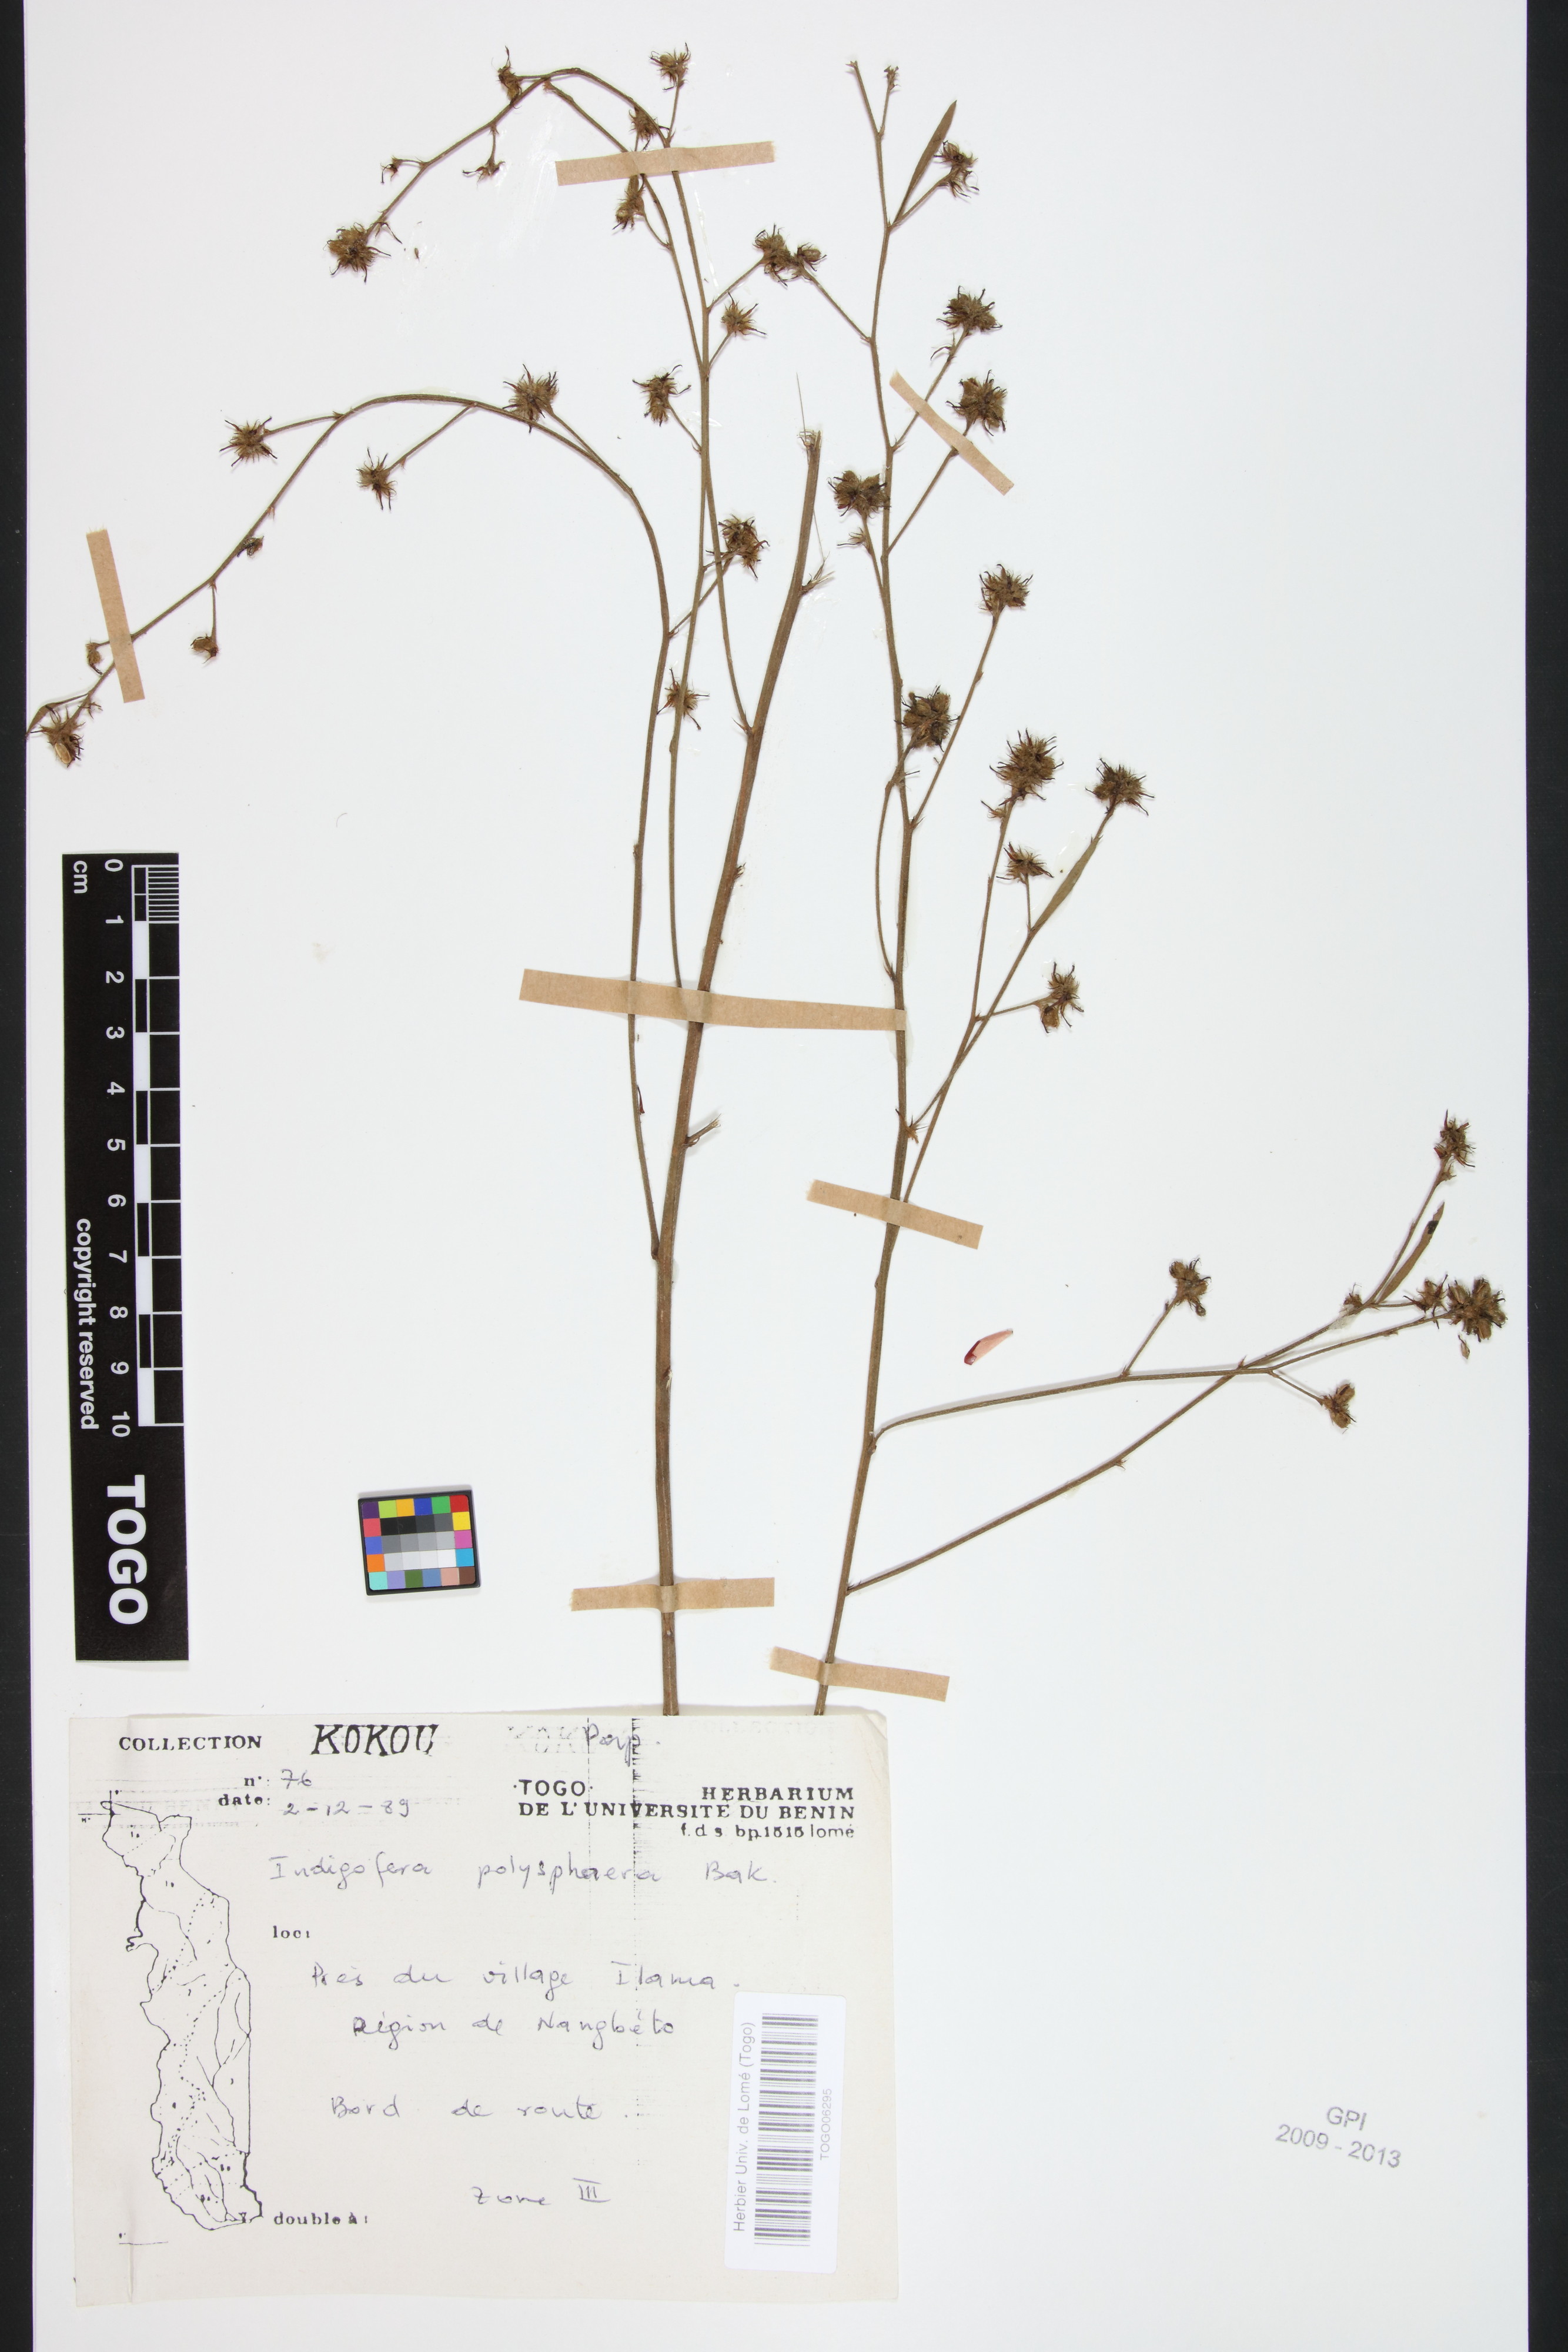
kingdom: Plantae
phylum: Tracheophyta
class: Magnoliopsida
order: Fabales
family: Fabaceae
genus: Indigofera
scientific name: Indigofera polysphaera
